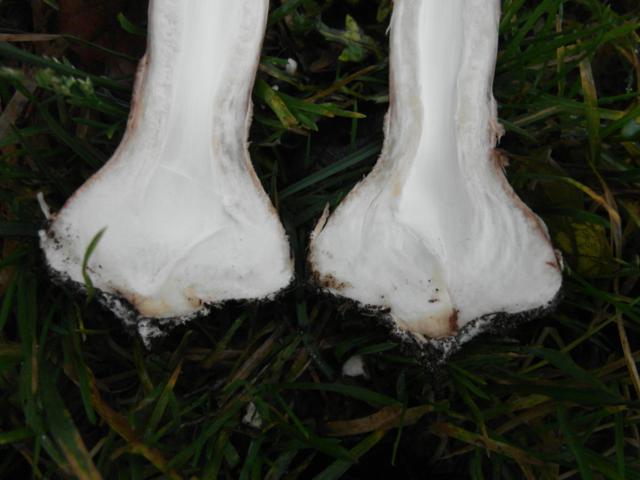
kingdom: Fungi
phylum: Basidiomycota
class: Agaricomycetes
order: Agaricales
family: Agaricaceae
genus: Macrolepiota
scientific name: Macrolepiota procera
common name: stor kæmpeparasolhat
